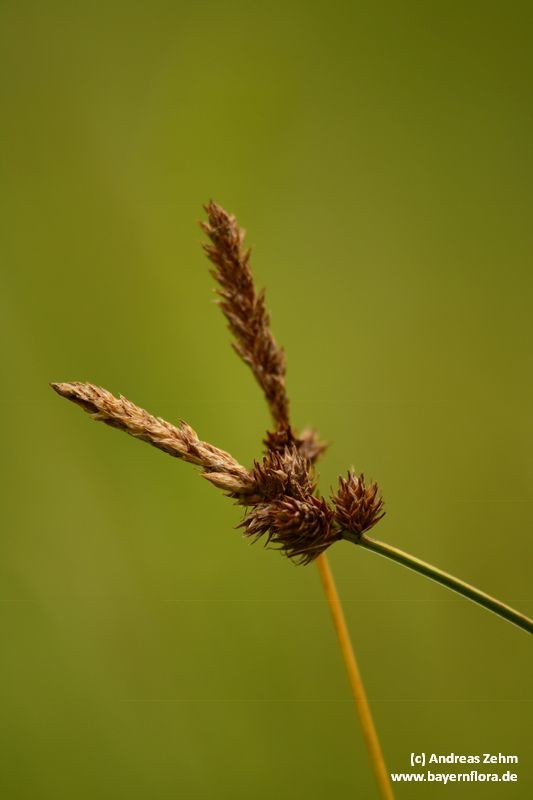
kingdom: Plantae
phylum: Tracheophyta
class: Liliopsida
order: Poales
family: Cyperaceae
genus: Carex
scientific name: Carex disticha
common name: Brown sedge
